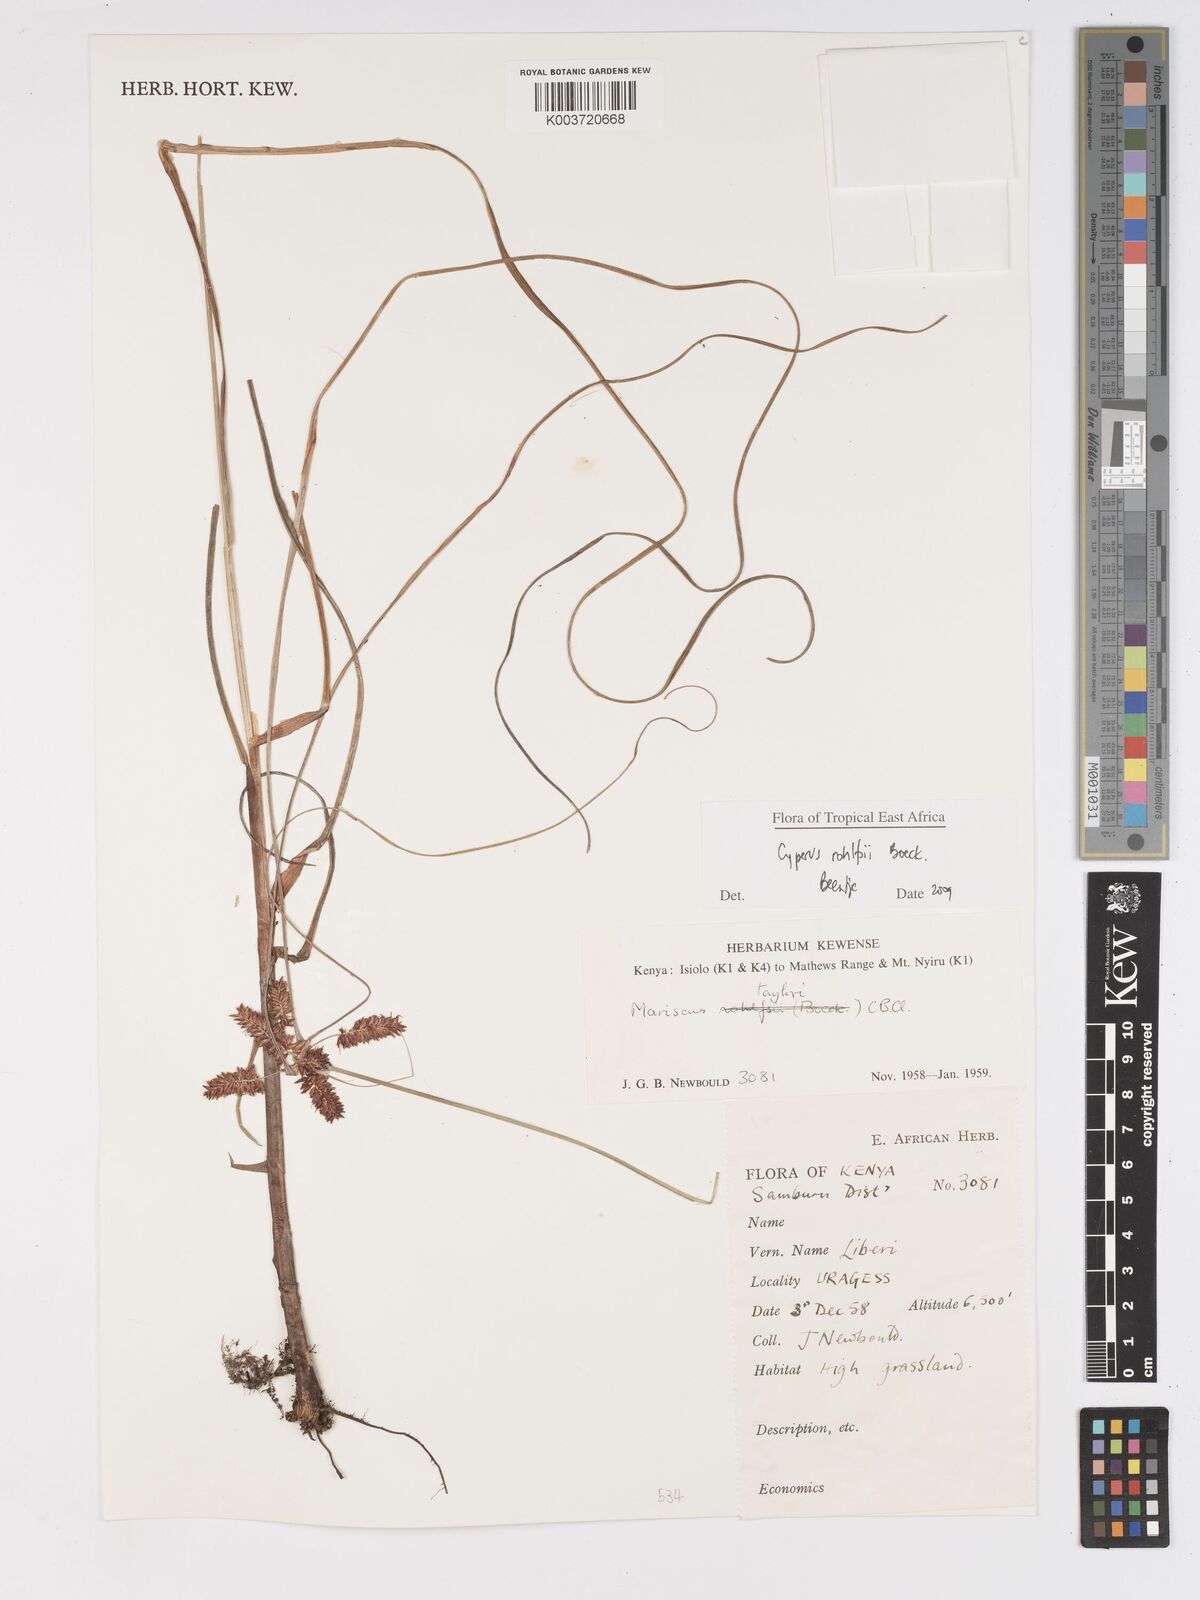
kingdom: Plantae
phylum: Tracheophyta
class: Liliopsida
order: Poales
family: Cyperaceae
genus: Cyperus
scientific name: Cyperus rohlfsii
